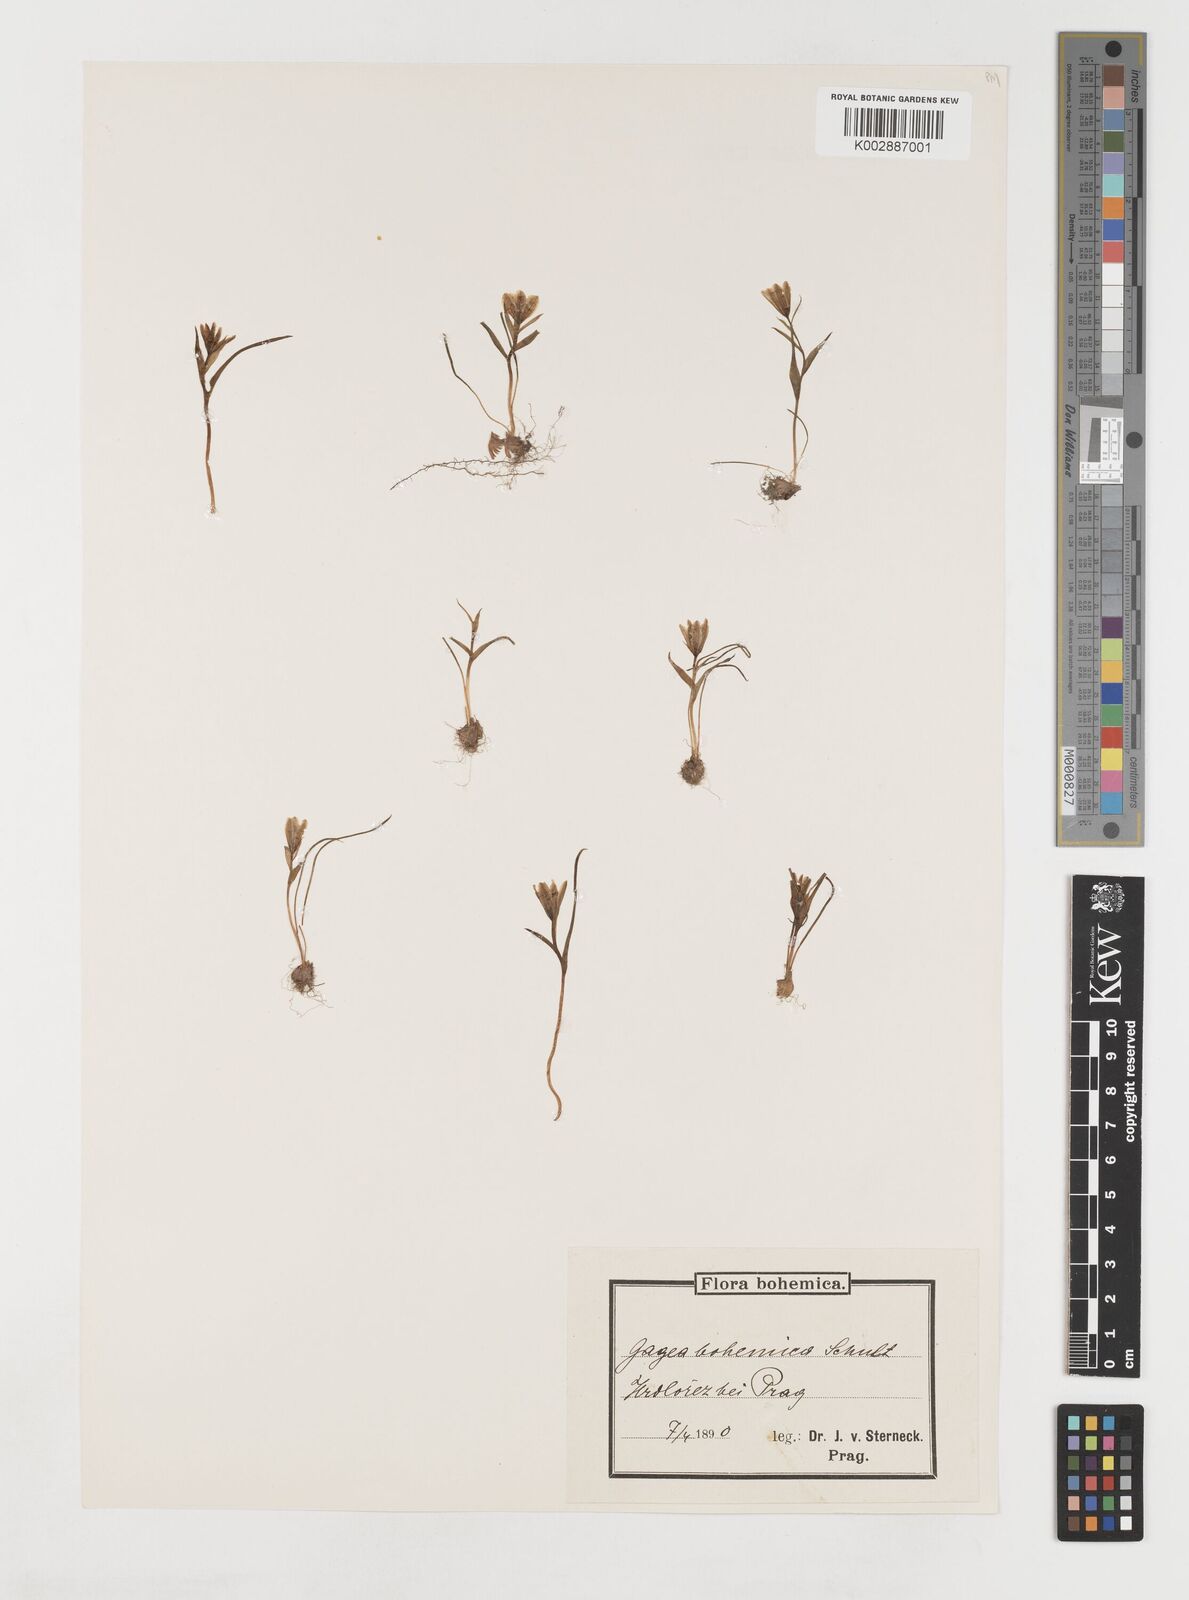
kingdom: Plantae
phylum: Tracheophyta
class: Liliopsida
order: Liliales
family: Liliaceae
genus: Gagea
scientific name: Gagea bohemica
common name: Early star-of-bethlehem
